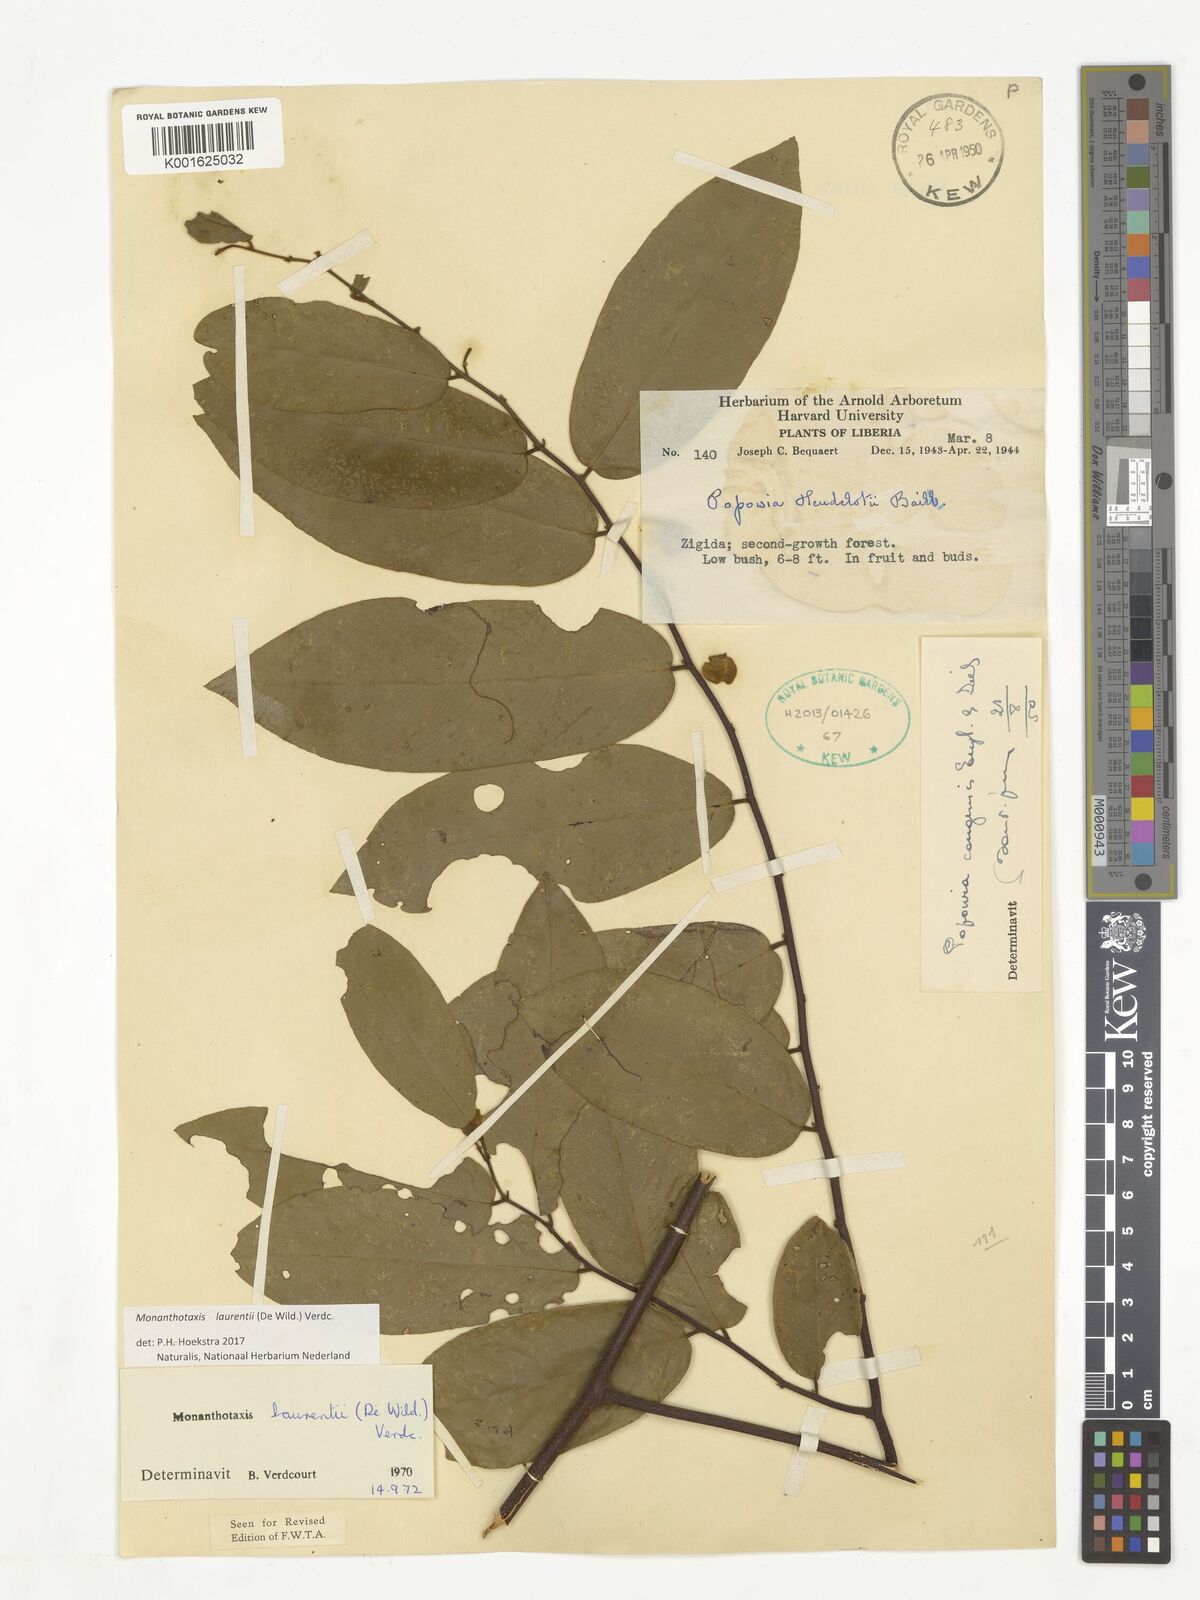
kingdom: Plantae
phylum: Tracheophyta
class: Magnoliopsida
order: Magnoliales
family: Annonaceae
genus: Monanthotaxis
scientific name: Monanthotaxis laurentii
